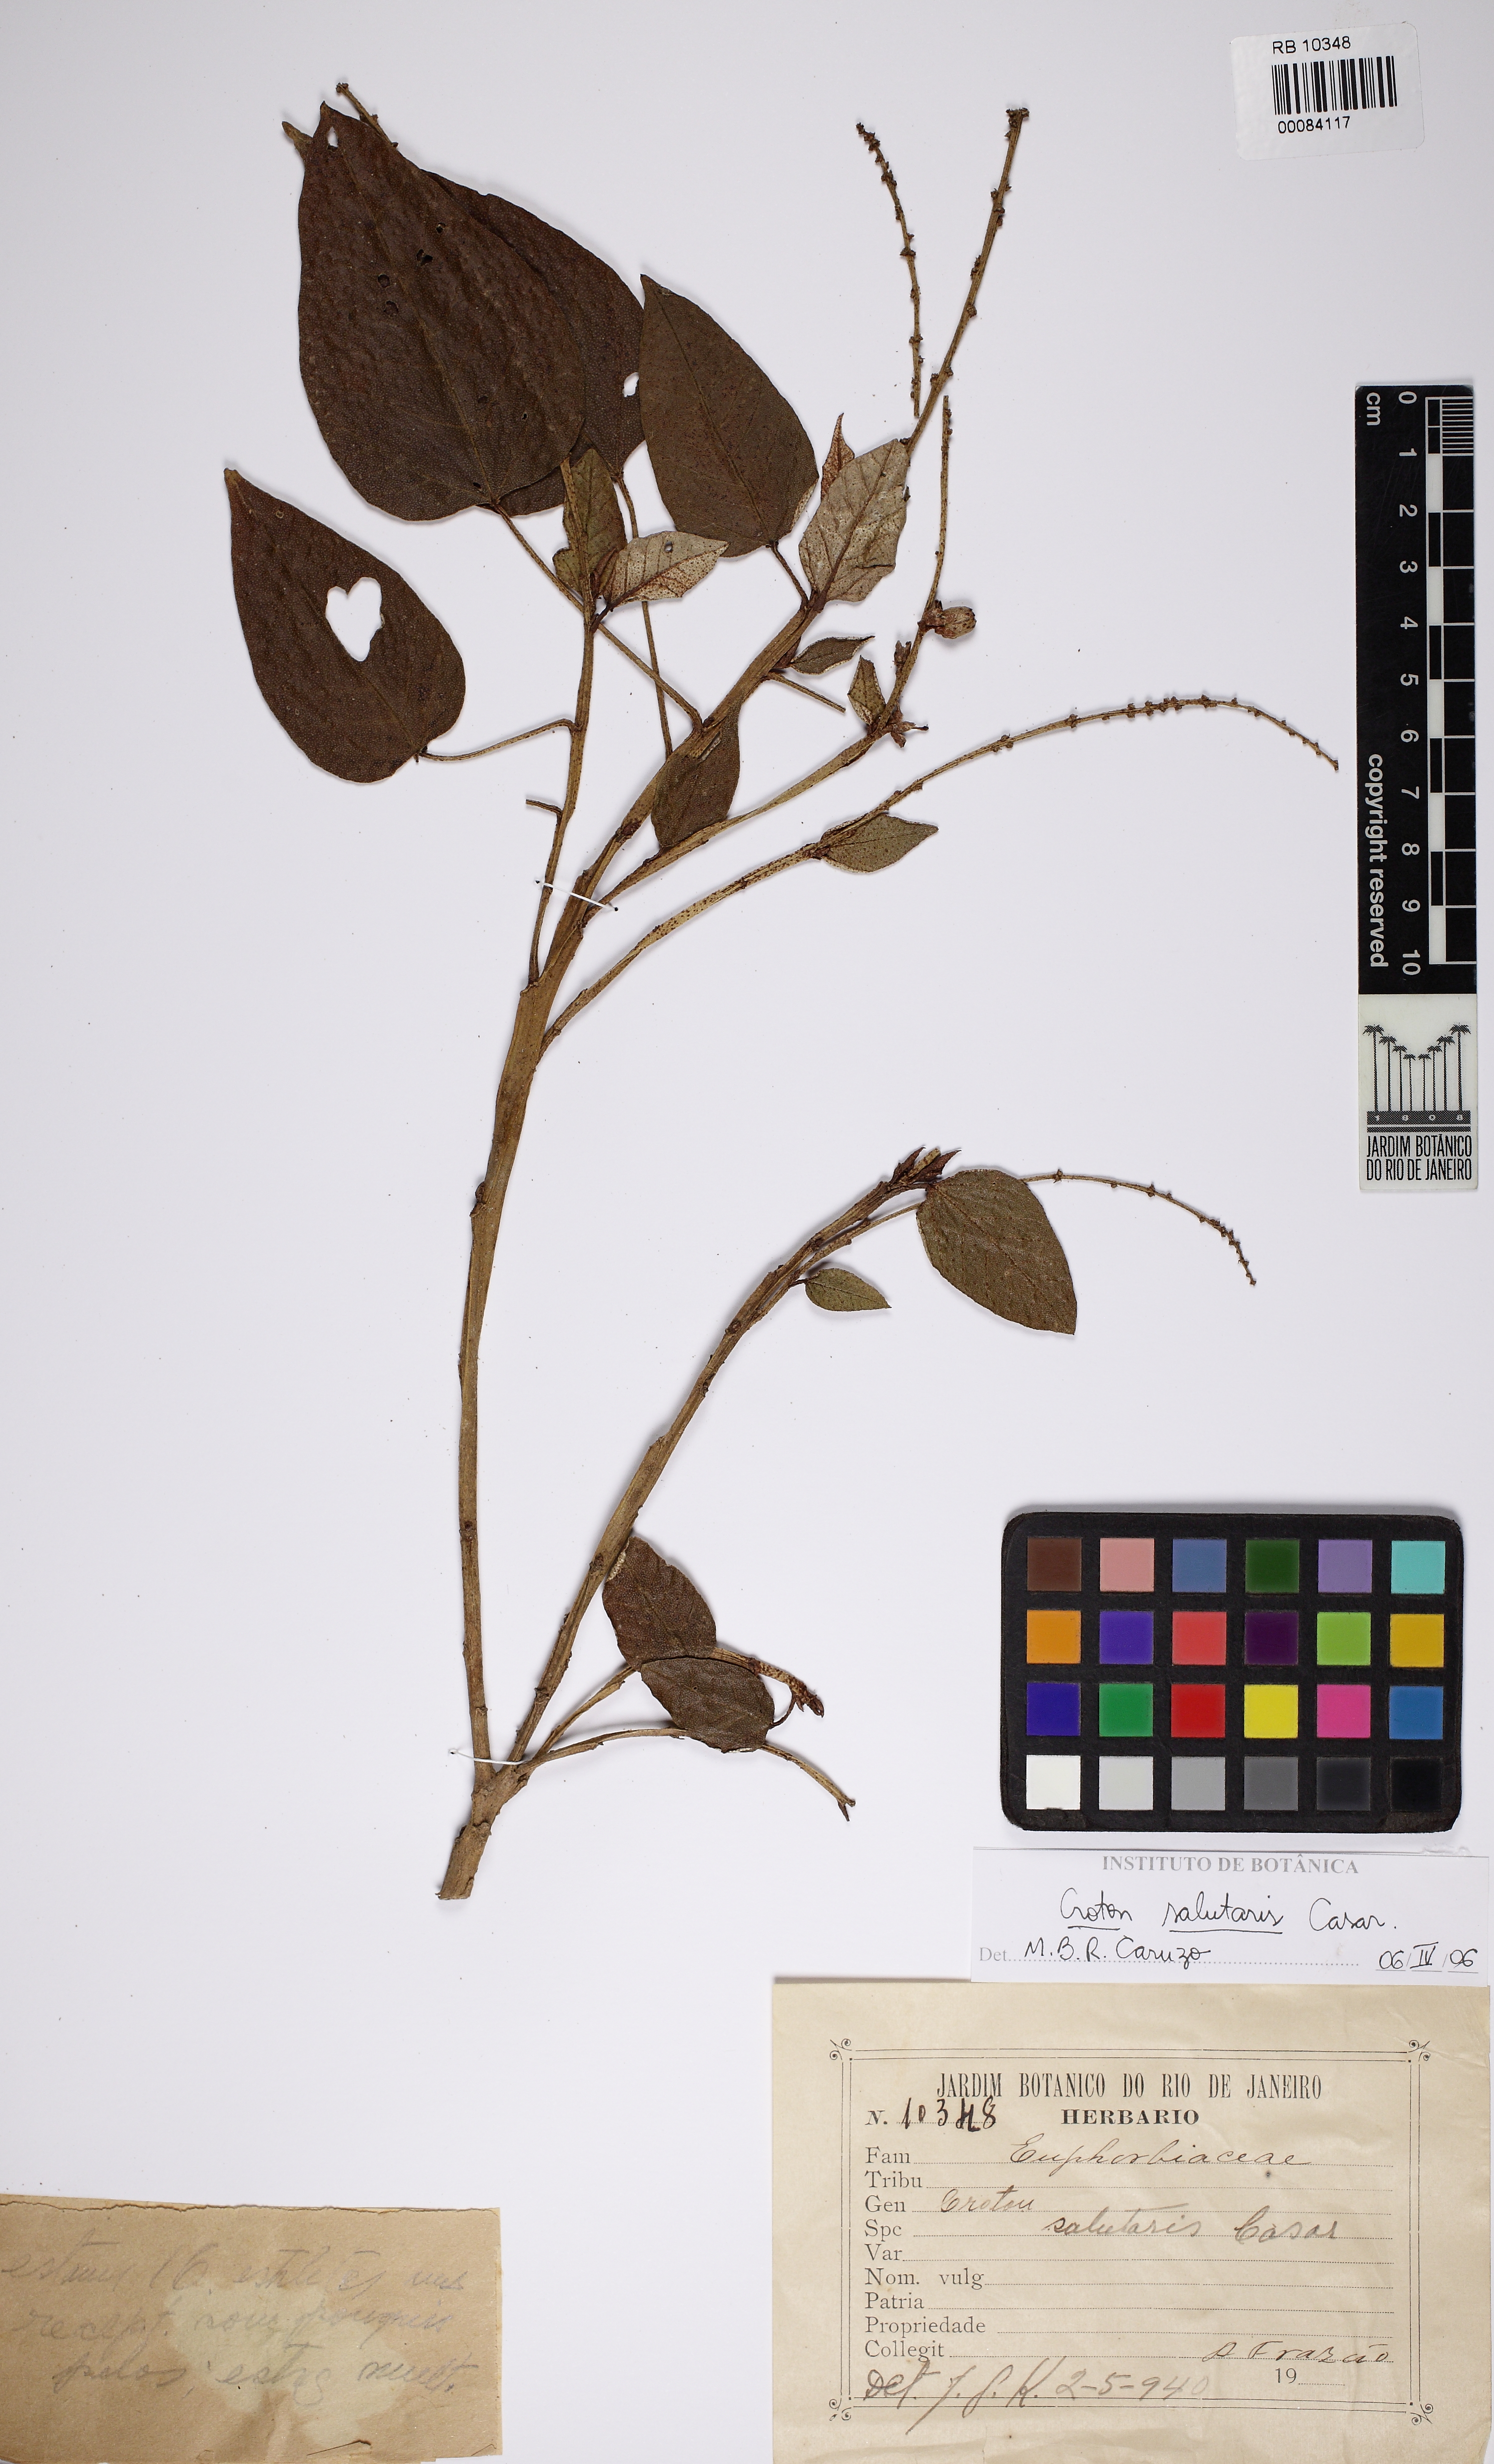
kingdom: Plantae
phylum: Tracheophyta
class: Magnoliopsida
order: Malpighiales
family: Euphorbiaceae
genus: Croton
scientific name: Croton salutaris
